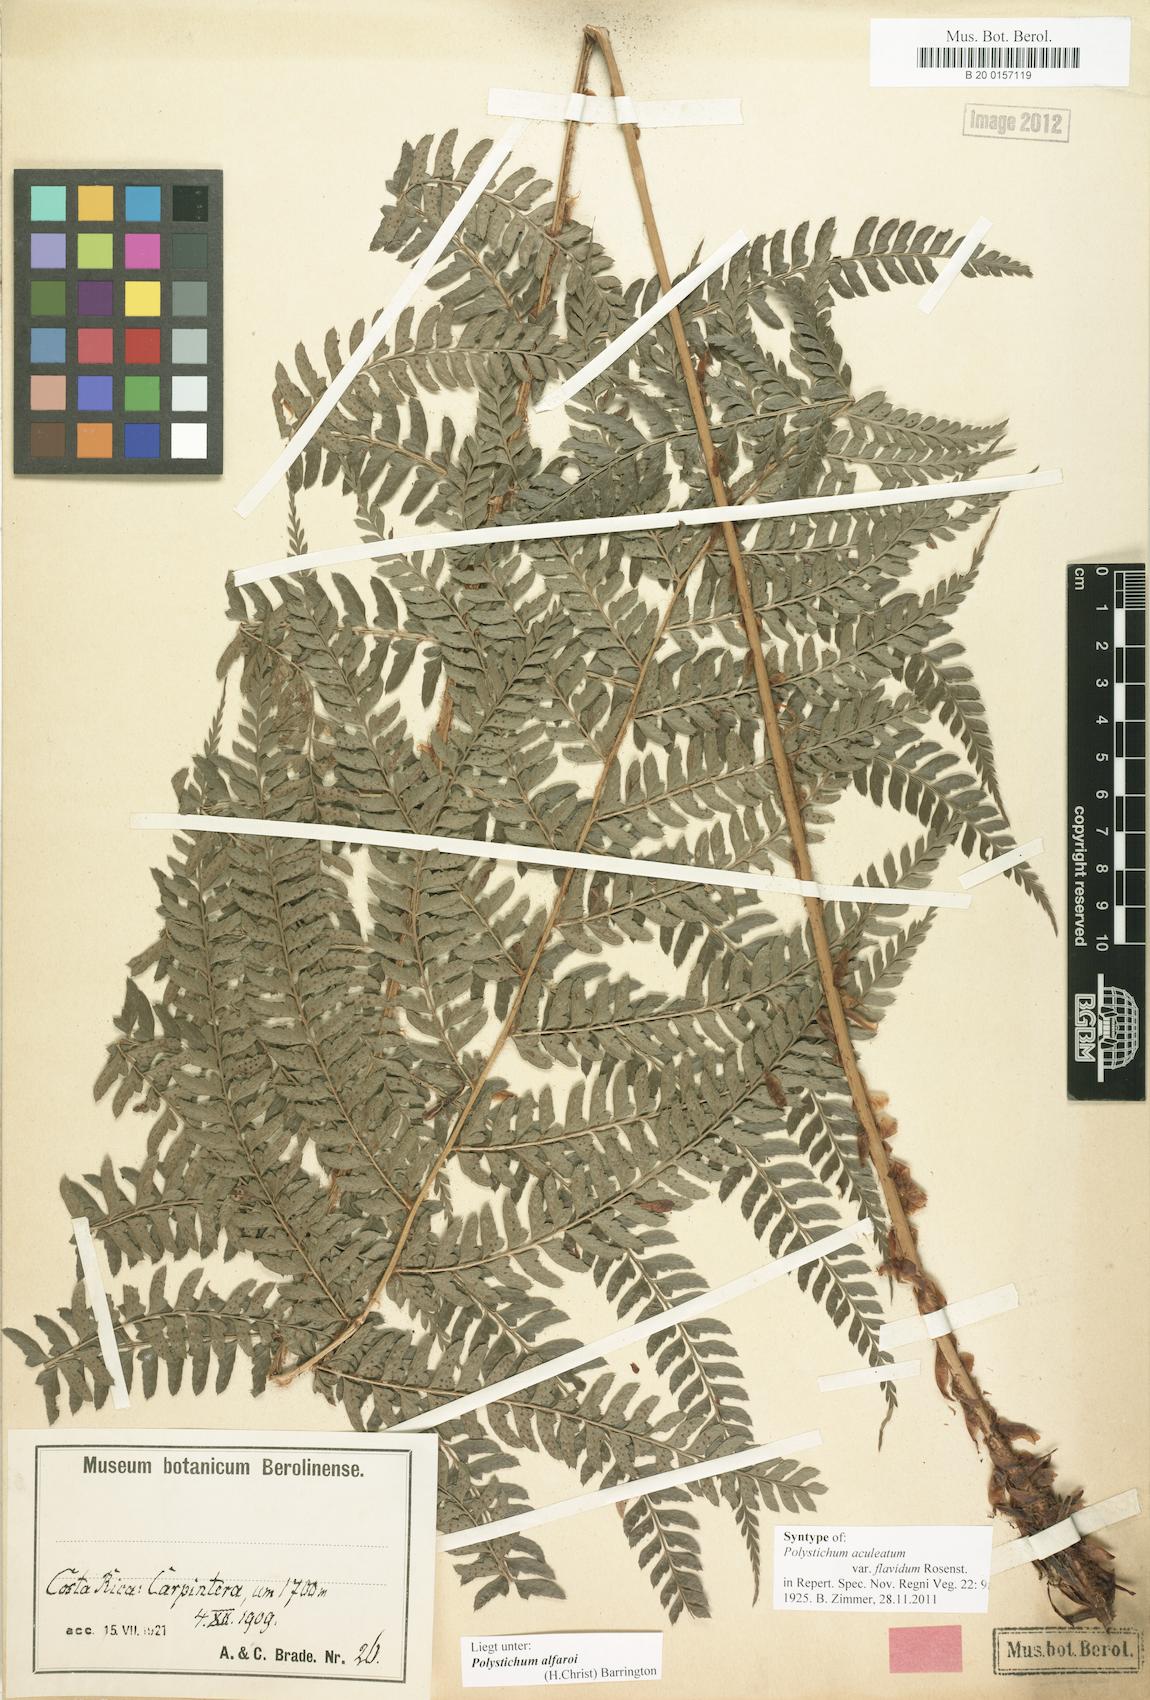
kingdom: Plantae
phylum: Tracheophyta
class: Polypodiopsida
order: Polypodiales
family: Dryopteridaceae
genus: Polystichum
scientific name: Polystichum alfaroi
